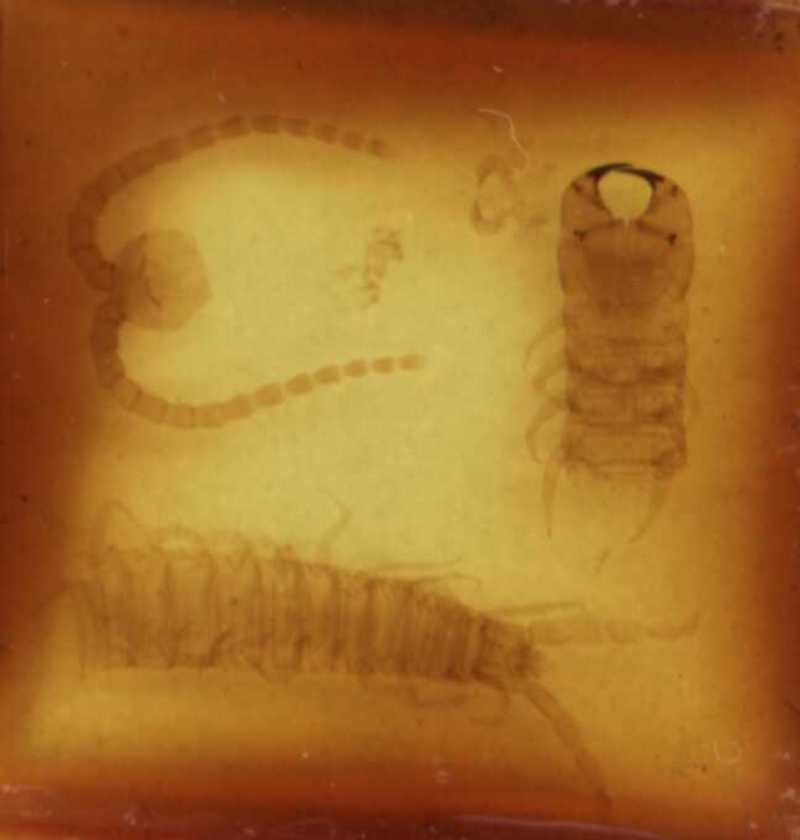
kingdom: Animalia
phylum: Arthropoda
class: Chilopoda
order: Geophilomorpha
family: Geophilidae
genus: Taschkentia
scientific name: Taschkentia parthorum
